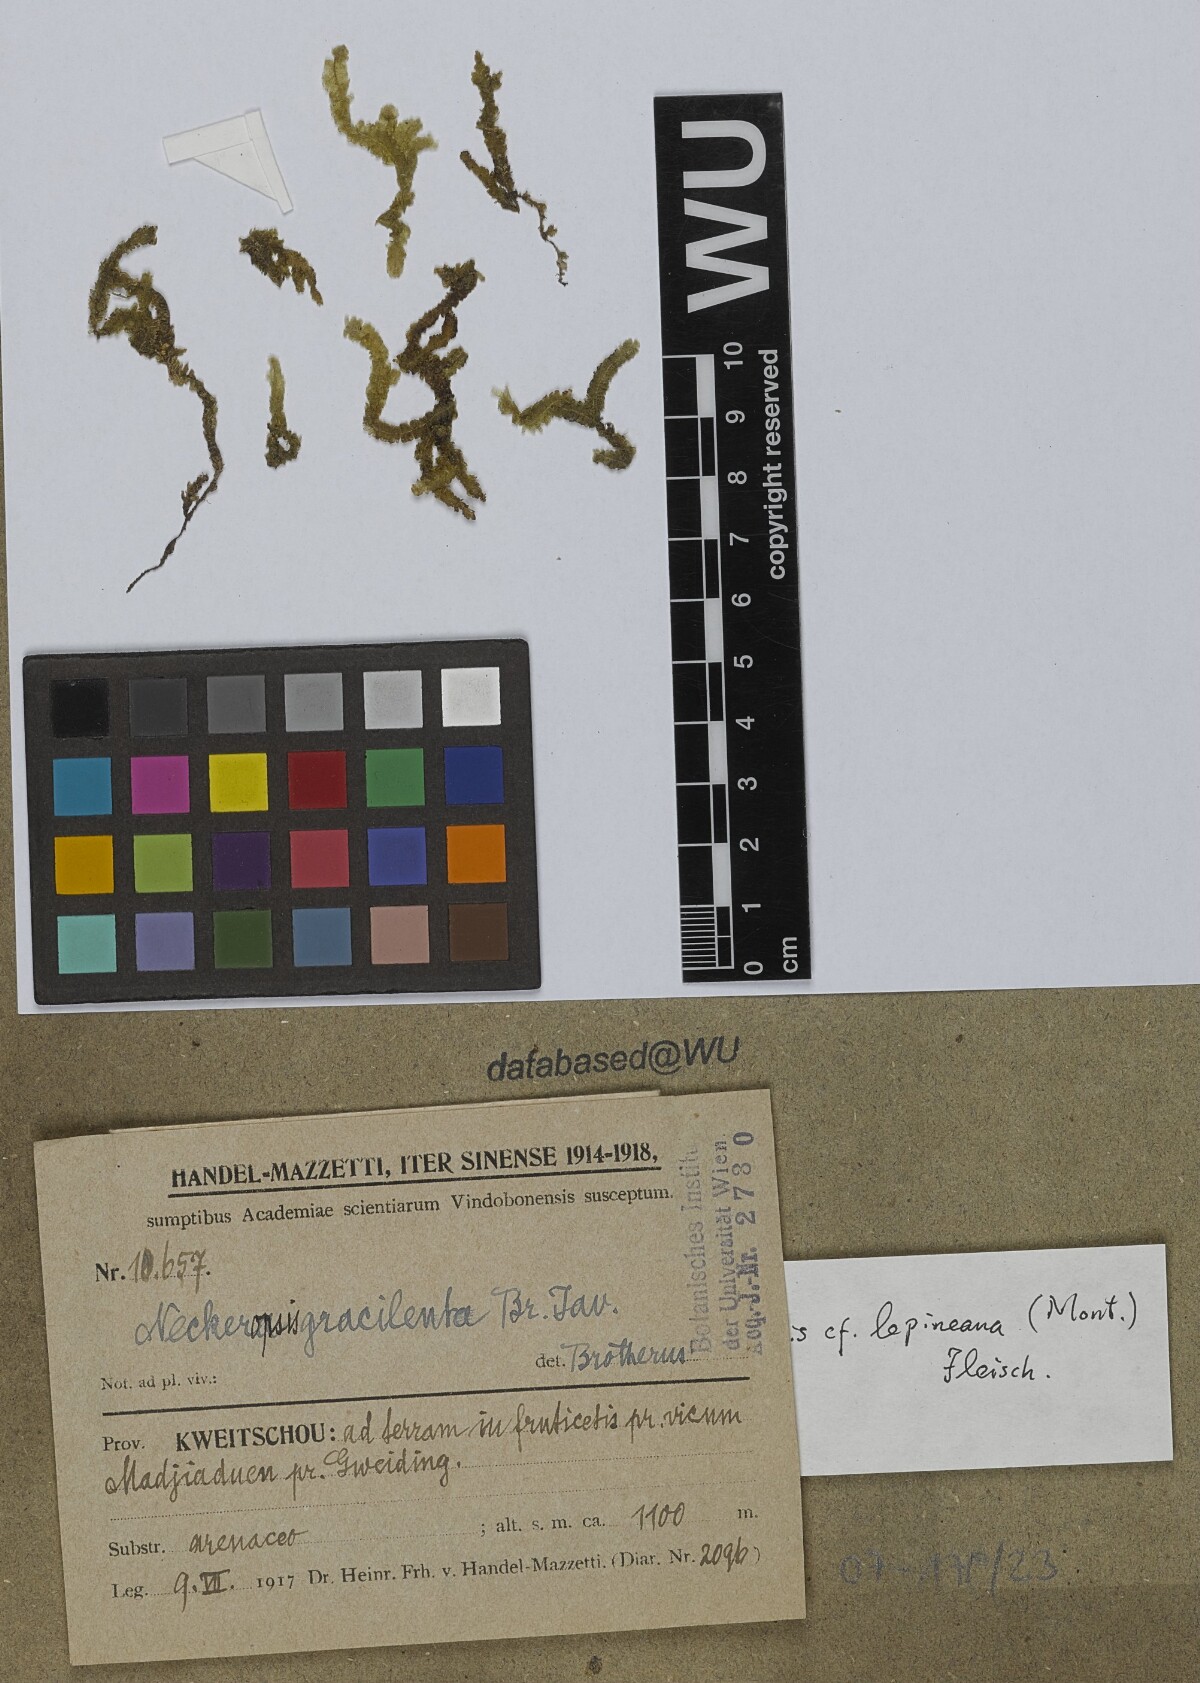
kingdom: Plantae
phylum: Bryophyta
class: Bryopsida
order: Hypnales
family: Neckeraceae
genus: Neckeromnion
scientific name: Neckeromnion lepineanum
